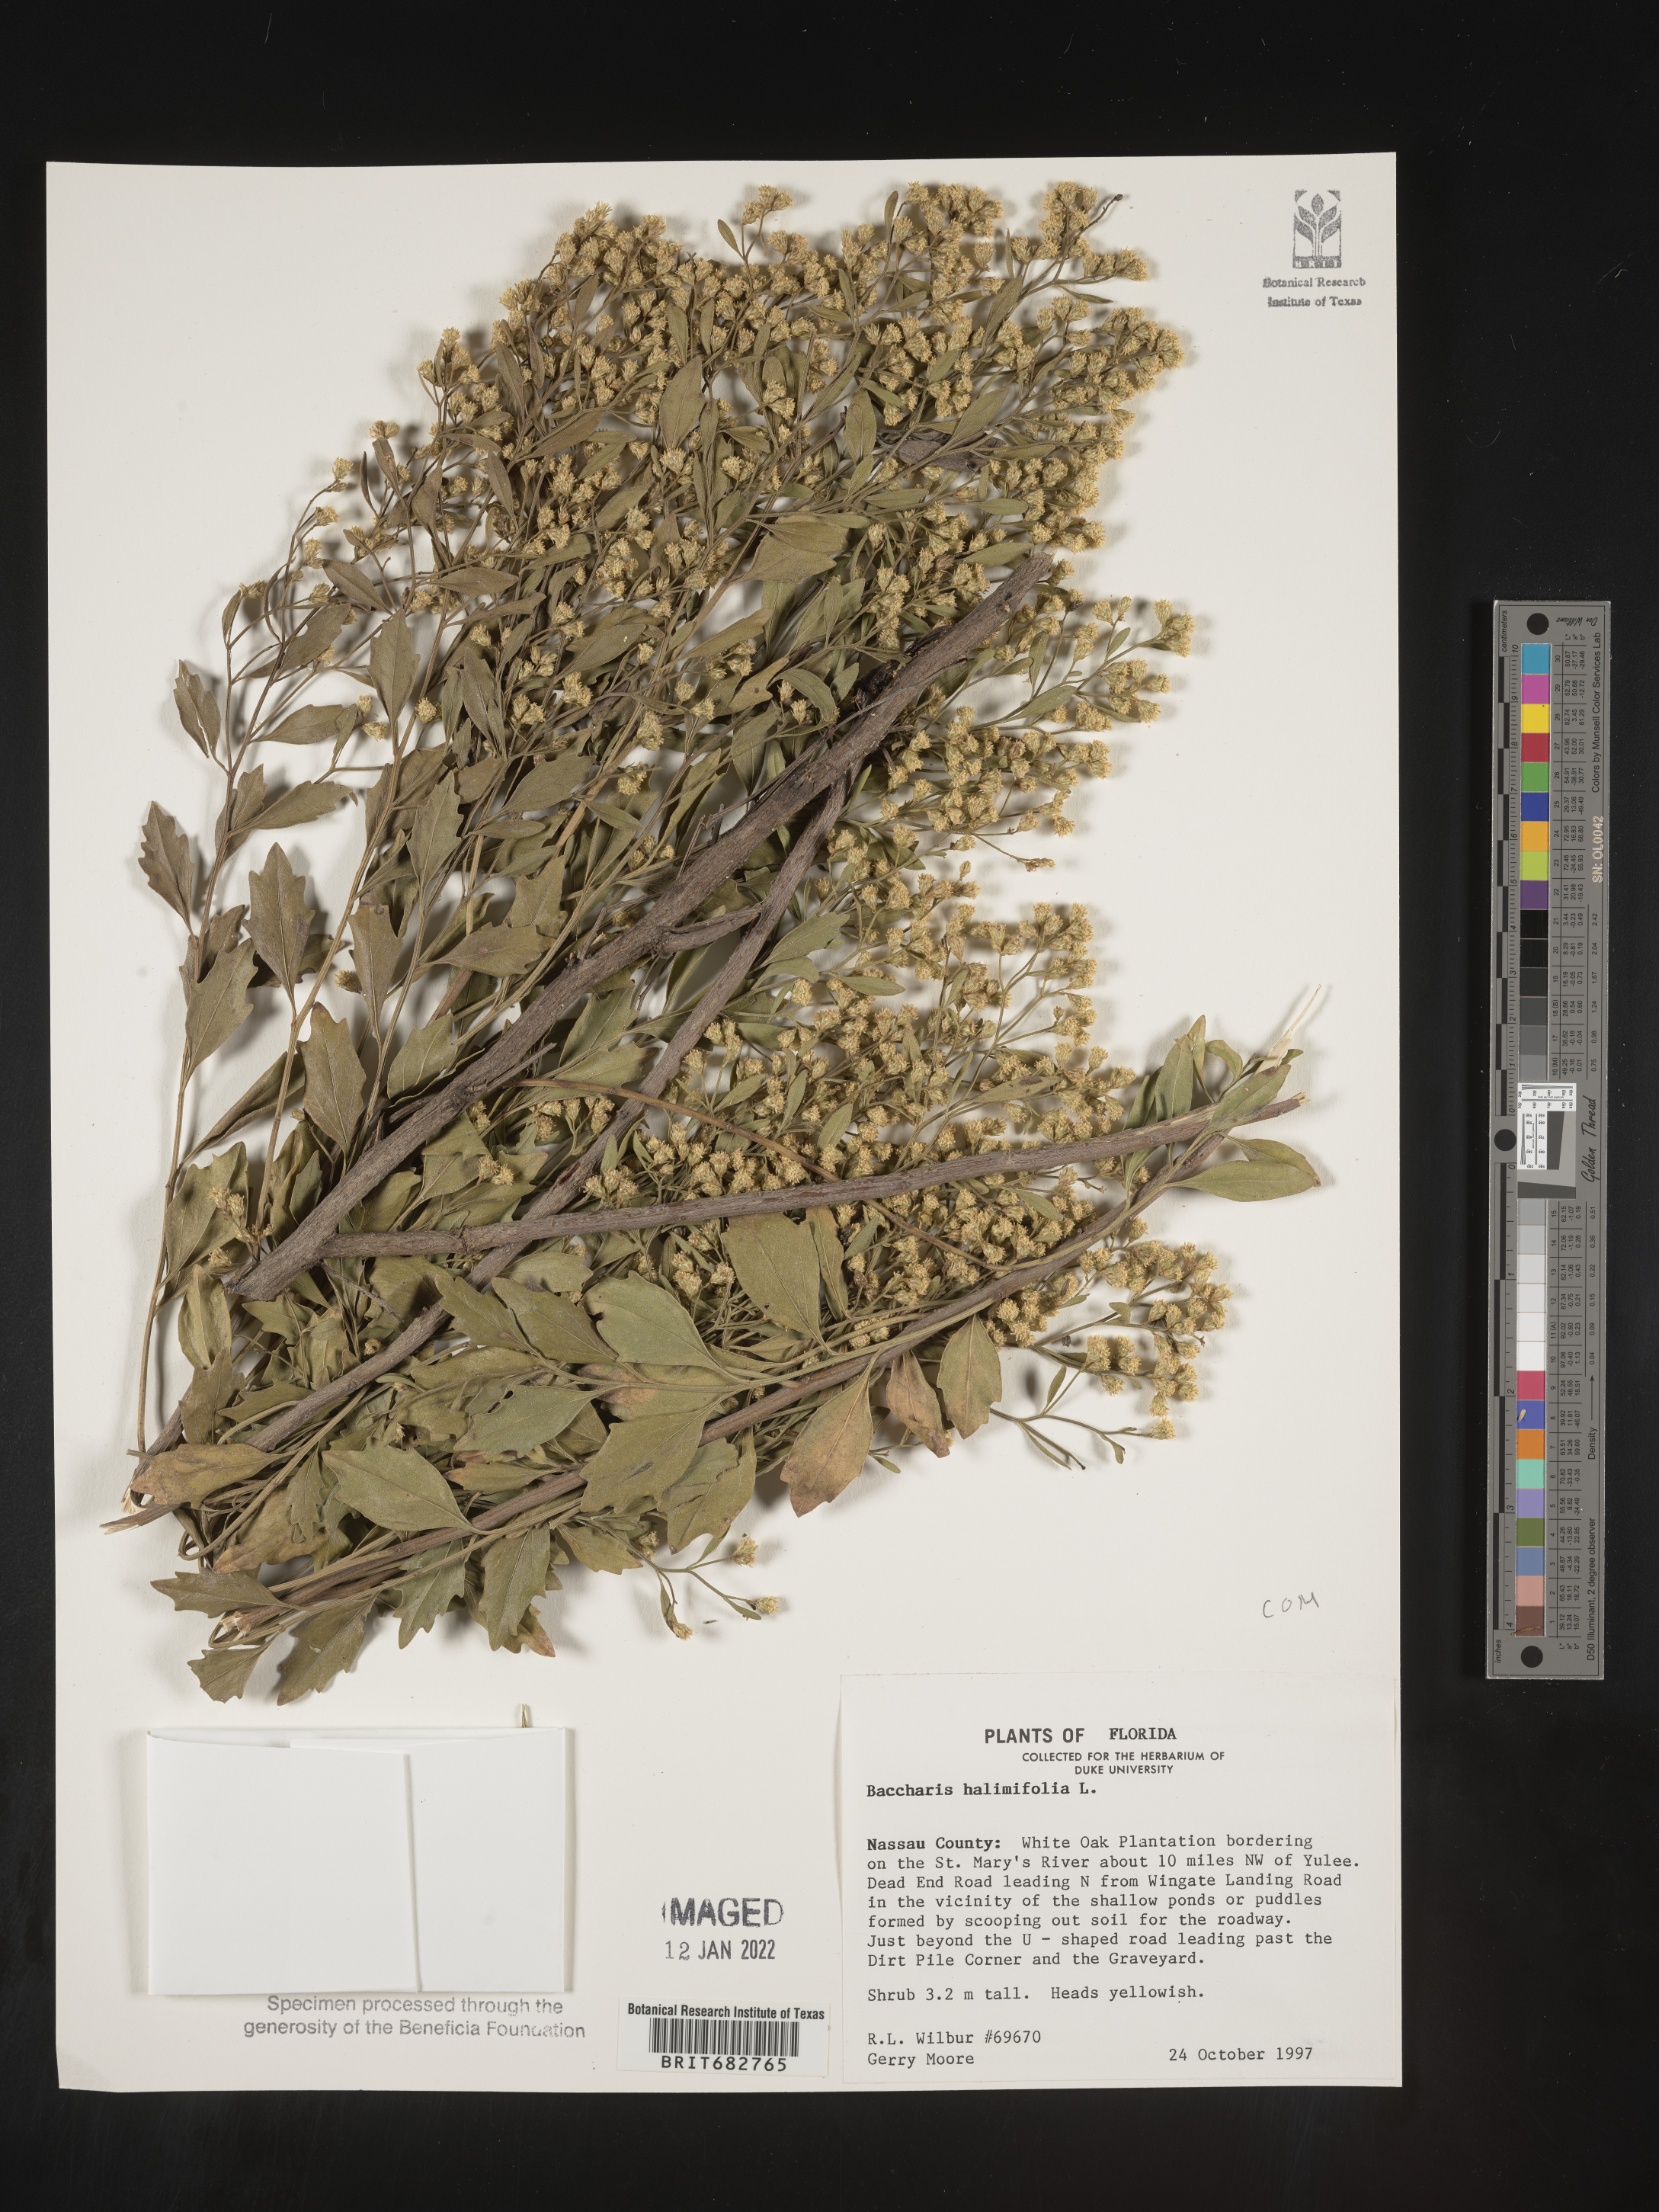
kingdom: Plantae
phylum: Tracheophyta
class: Magnoliopsida
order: Asterales
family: Asteraceae
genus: Nidorella
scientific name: Nidorella ivifolia
